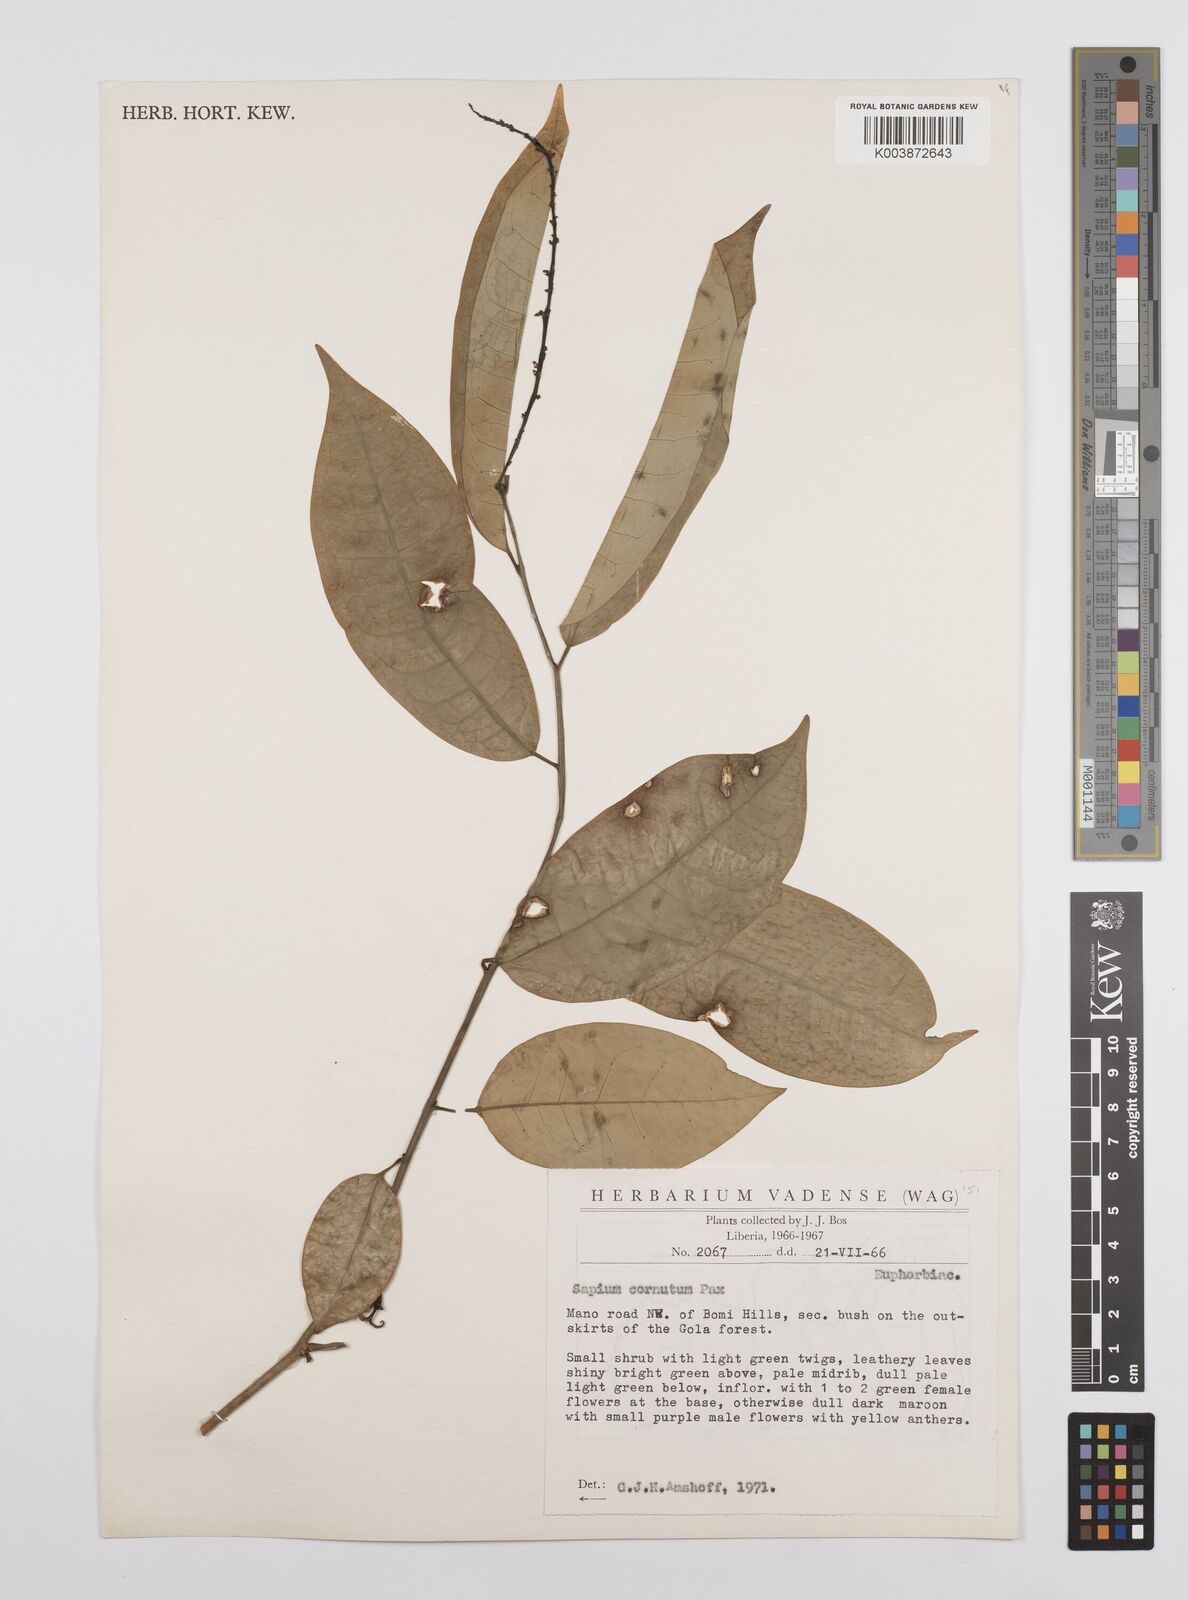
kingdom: Plantae
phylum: Tracheophyta
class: Magnoliopsida
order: Malpighiales
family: Euphorbiaceae
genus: Sclerocroton
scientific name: Sclerocroton carterianus
